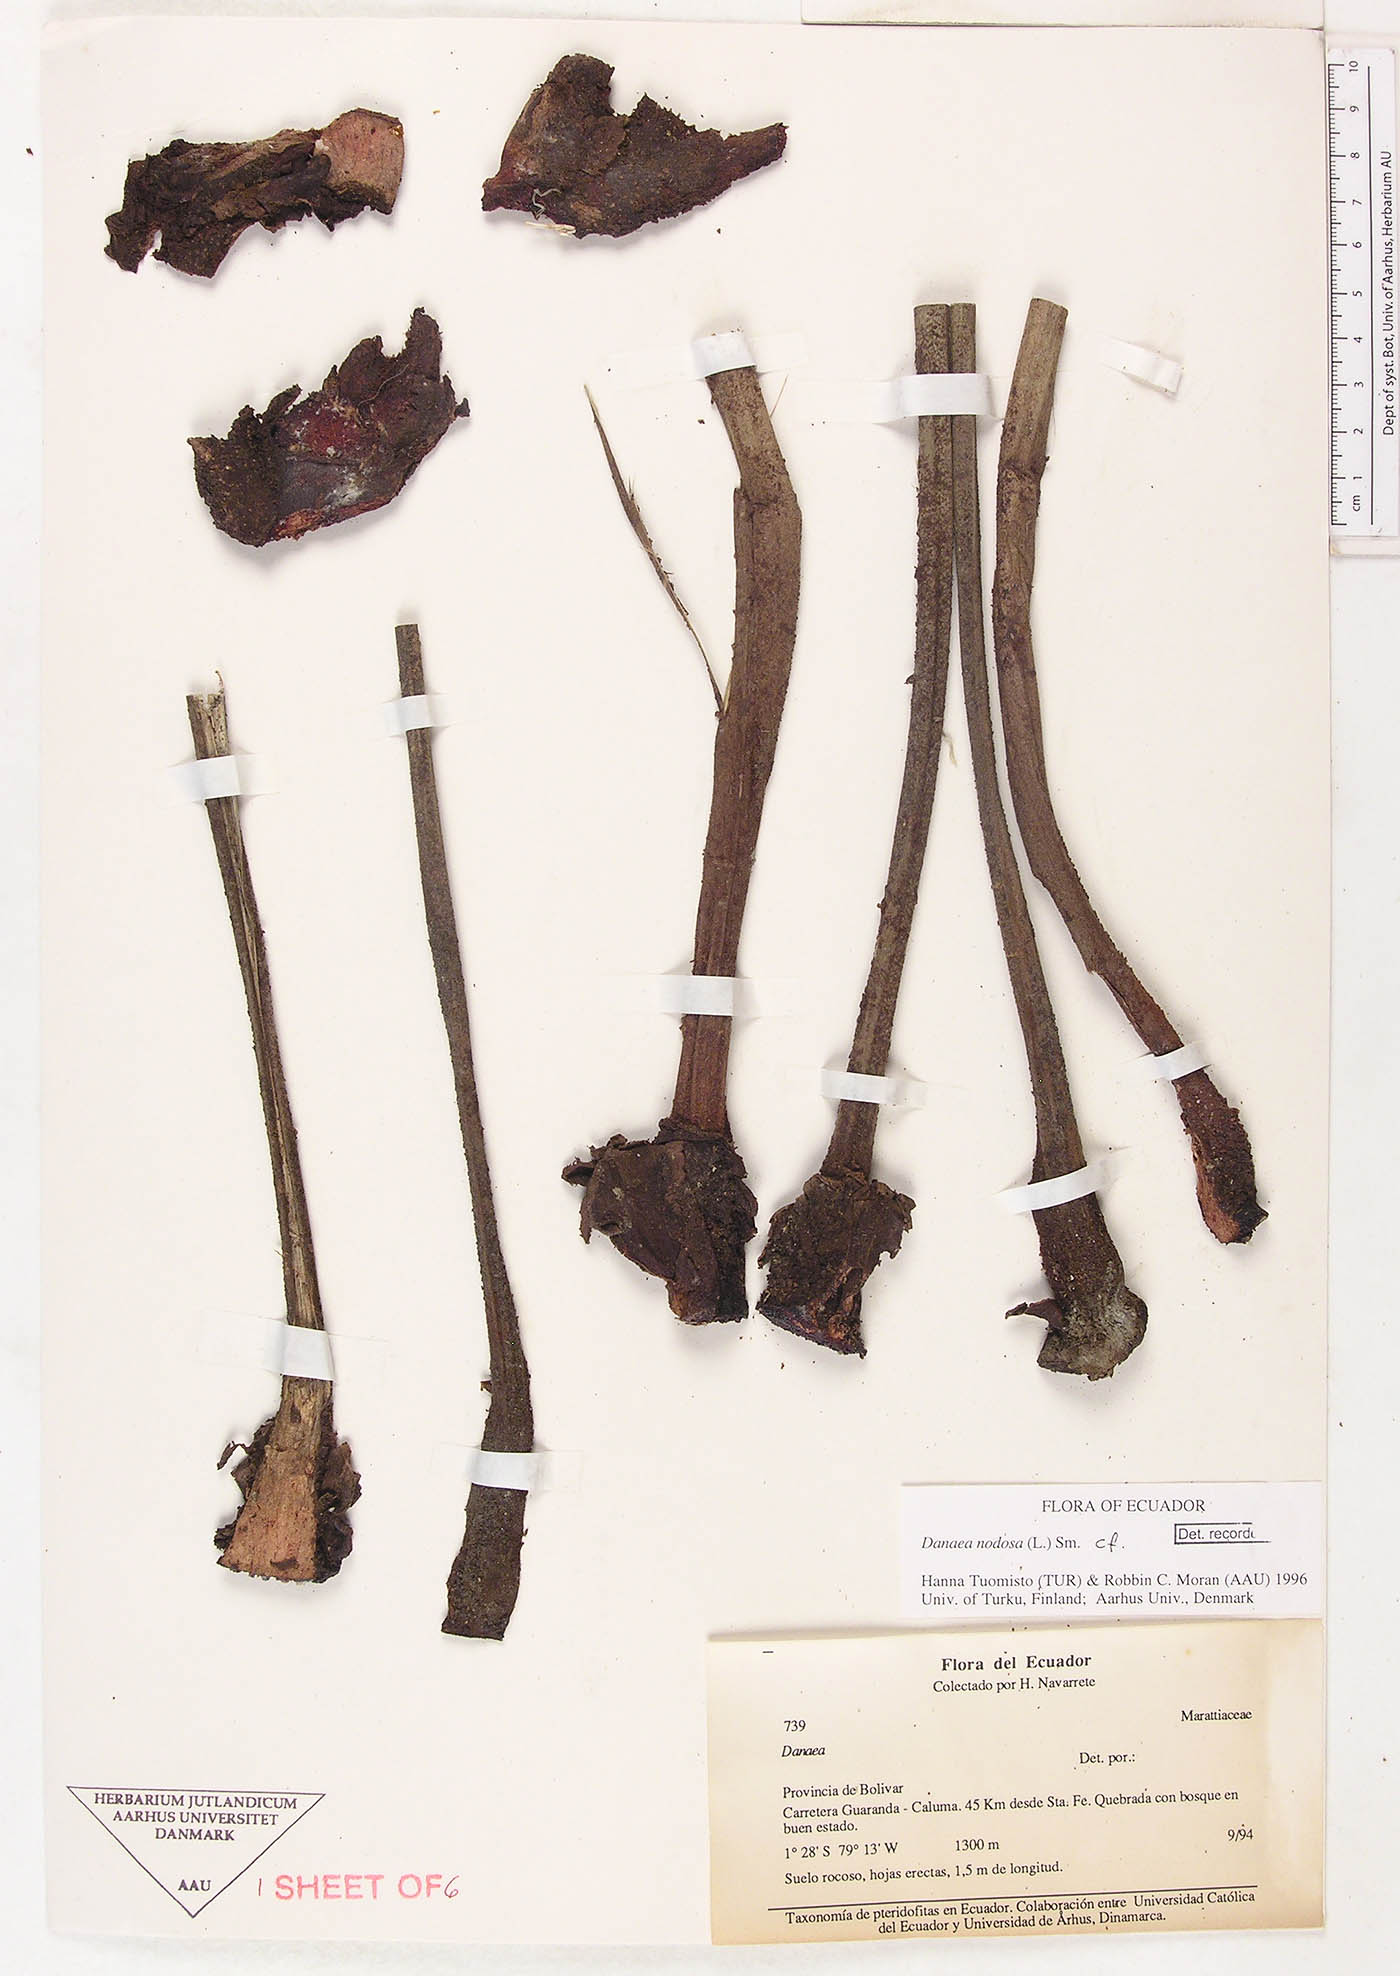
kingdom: Plantae
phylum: Tracheophyta
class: Polypodiopsida
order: Marattiales
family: Marattiaceae
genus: Danaea
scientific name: Danaea nodosa
